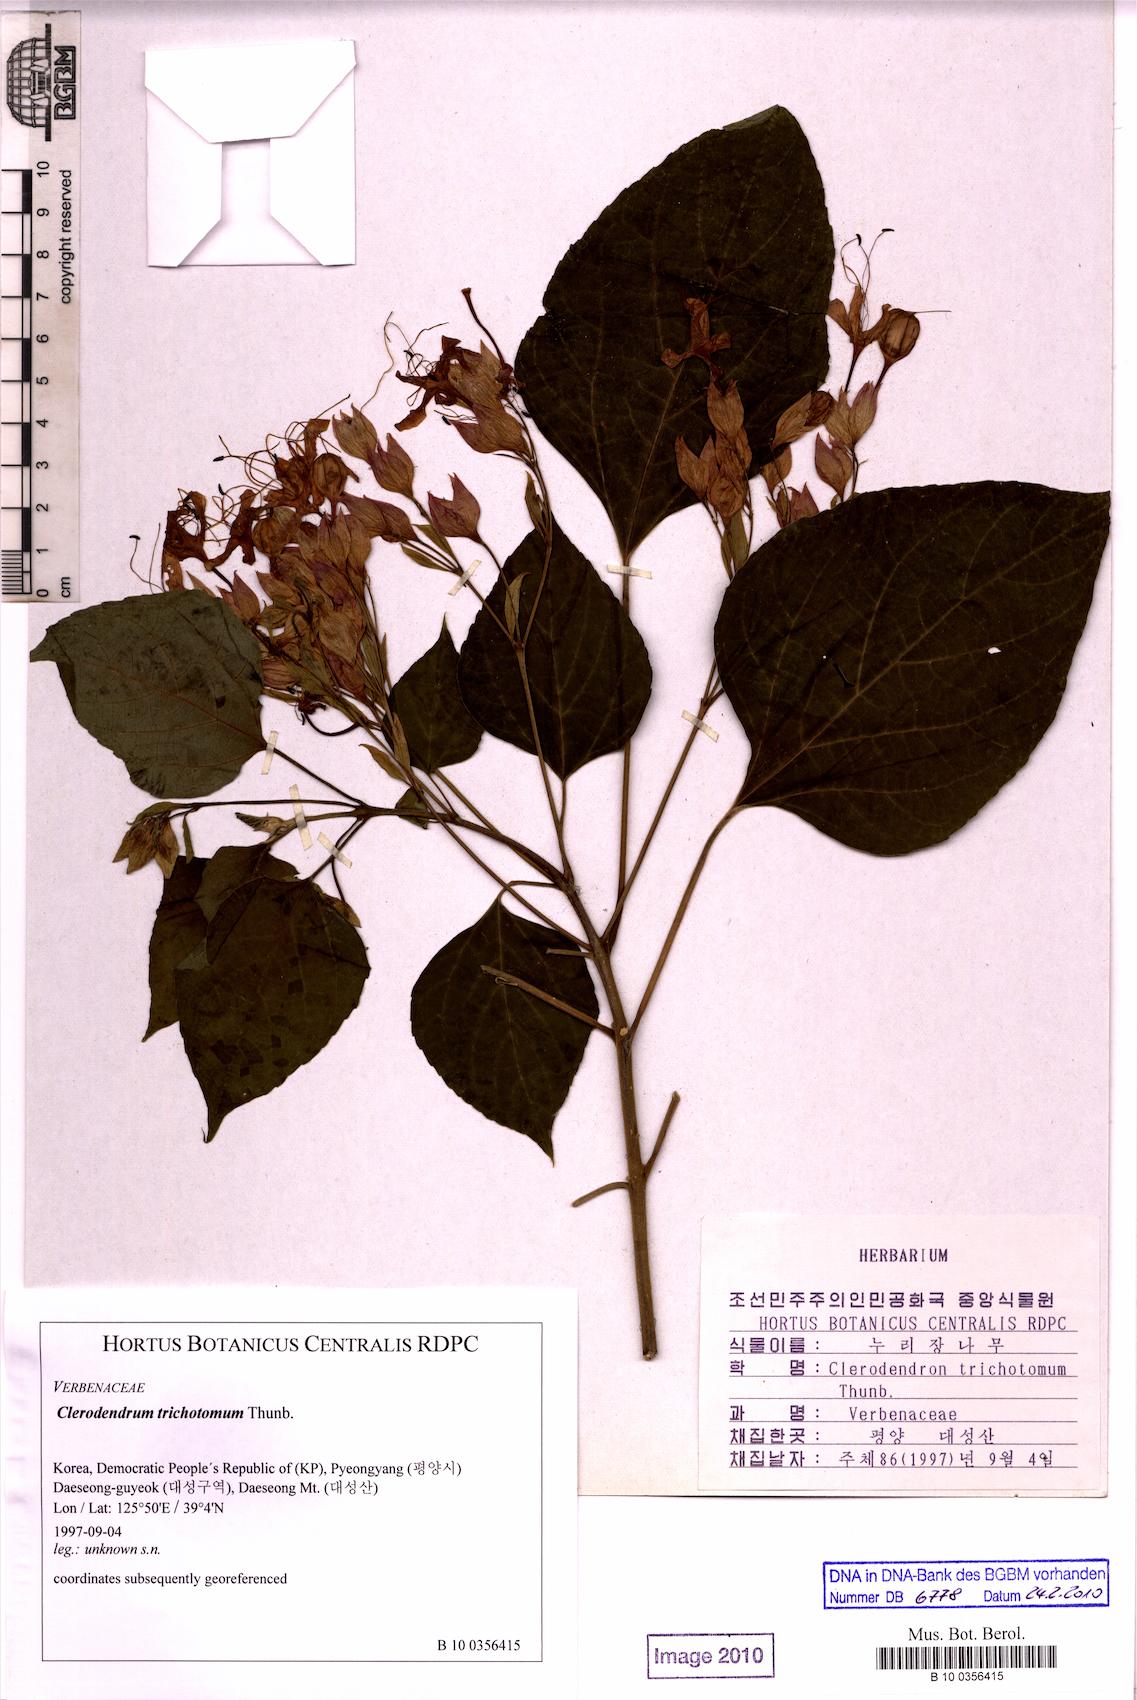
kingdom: Plantae
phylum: Tracheophyta
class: Magnoliopsida
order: Lamiales
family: Lamiaceae
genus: Clerodendrum
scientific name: Clerodendrum trichotomum
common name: Harlequin glorybower
